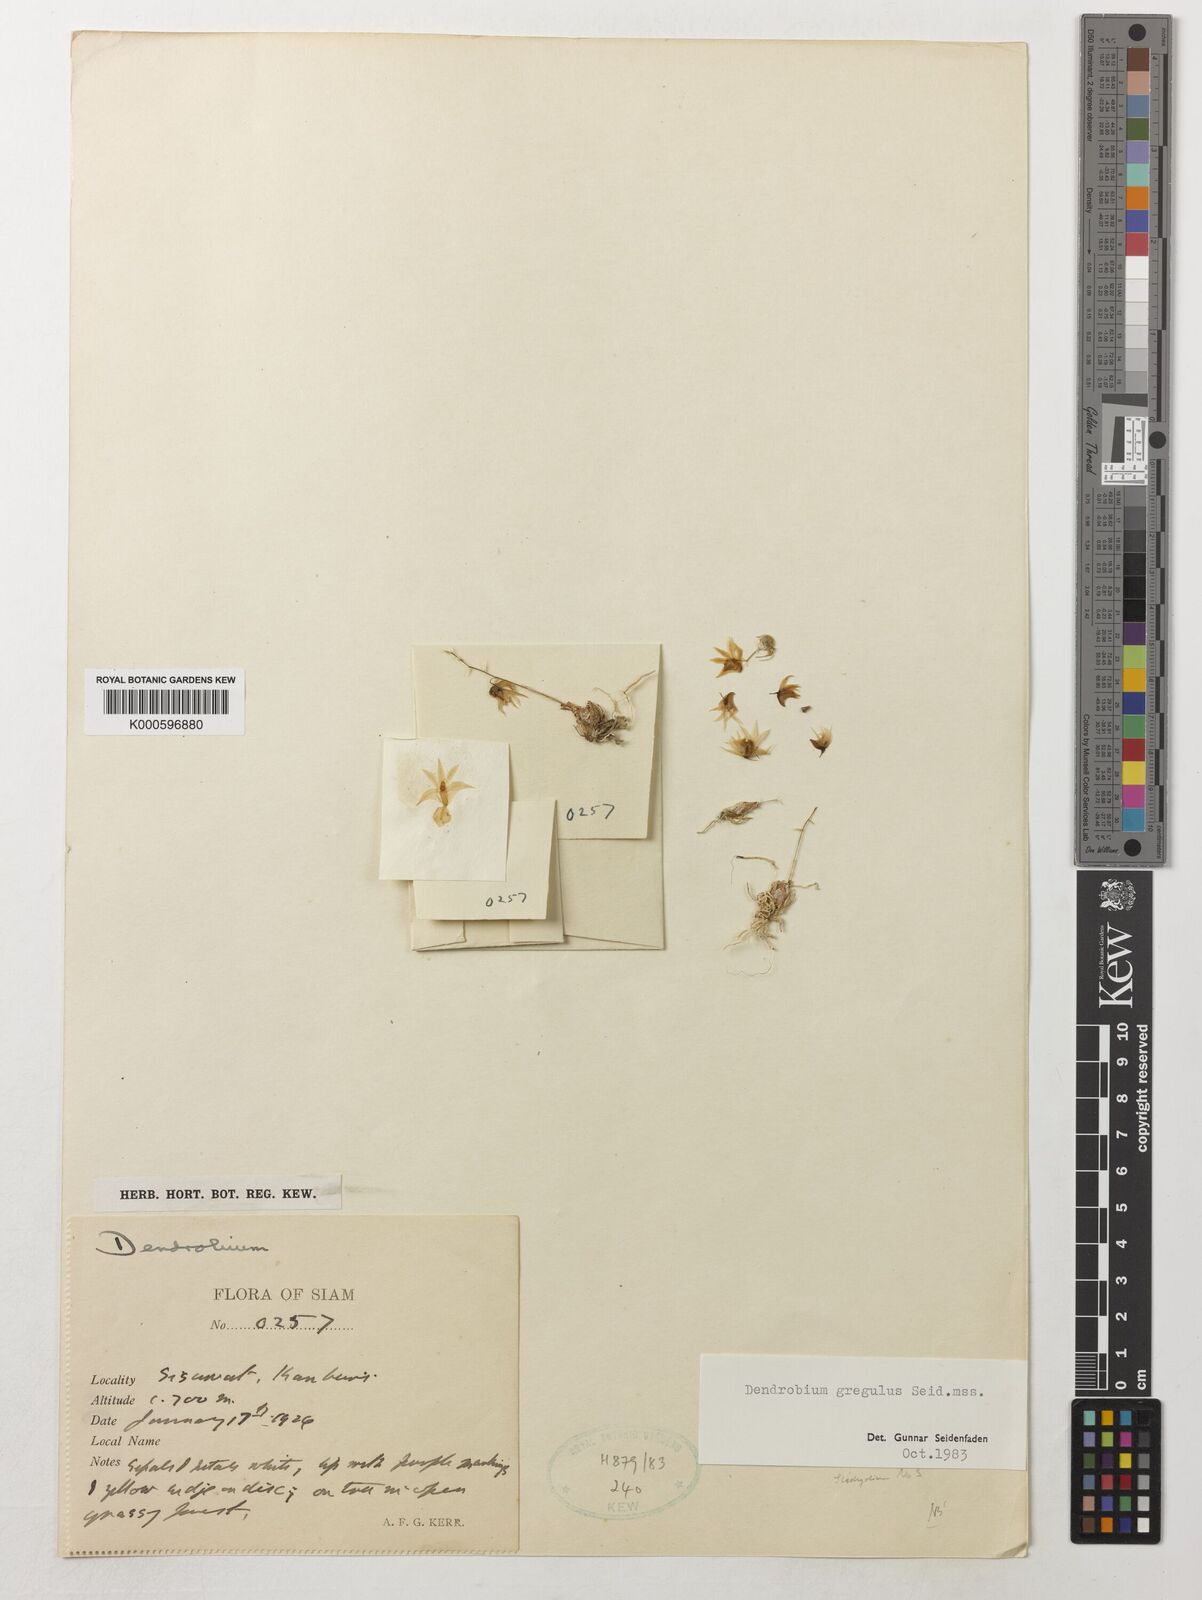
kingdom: Plantae
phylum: Tracheophyta
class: Liliopsida
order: Asparagales
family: Orchidaceae
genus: Dendrobium
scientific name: Dendrobium gregulus
